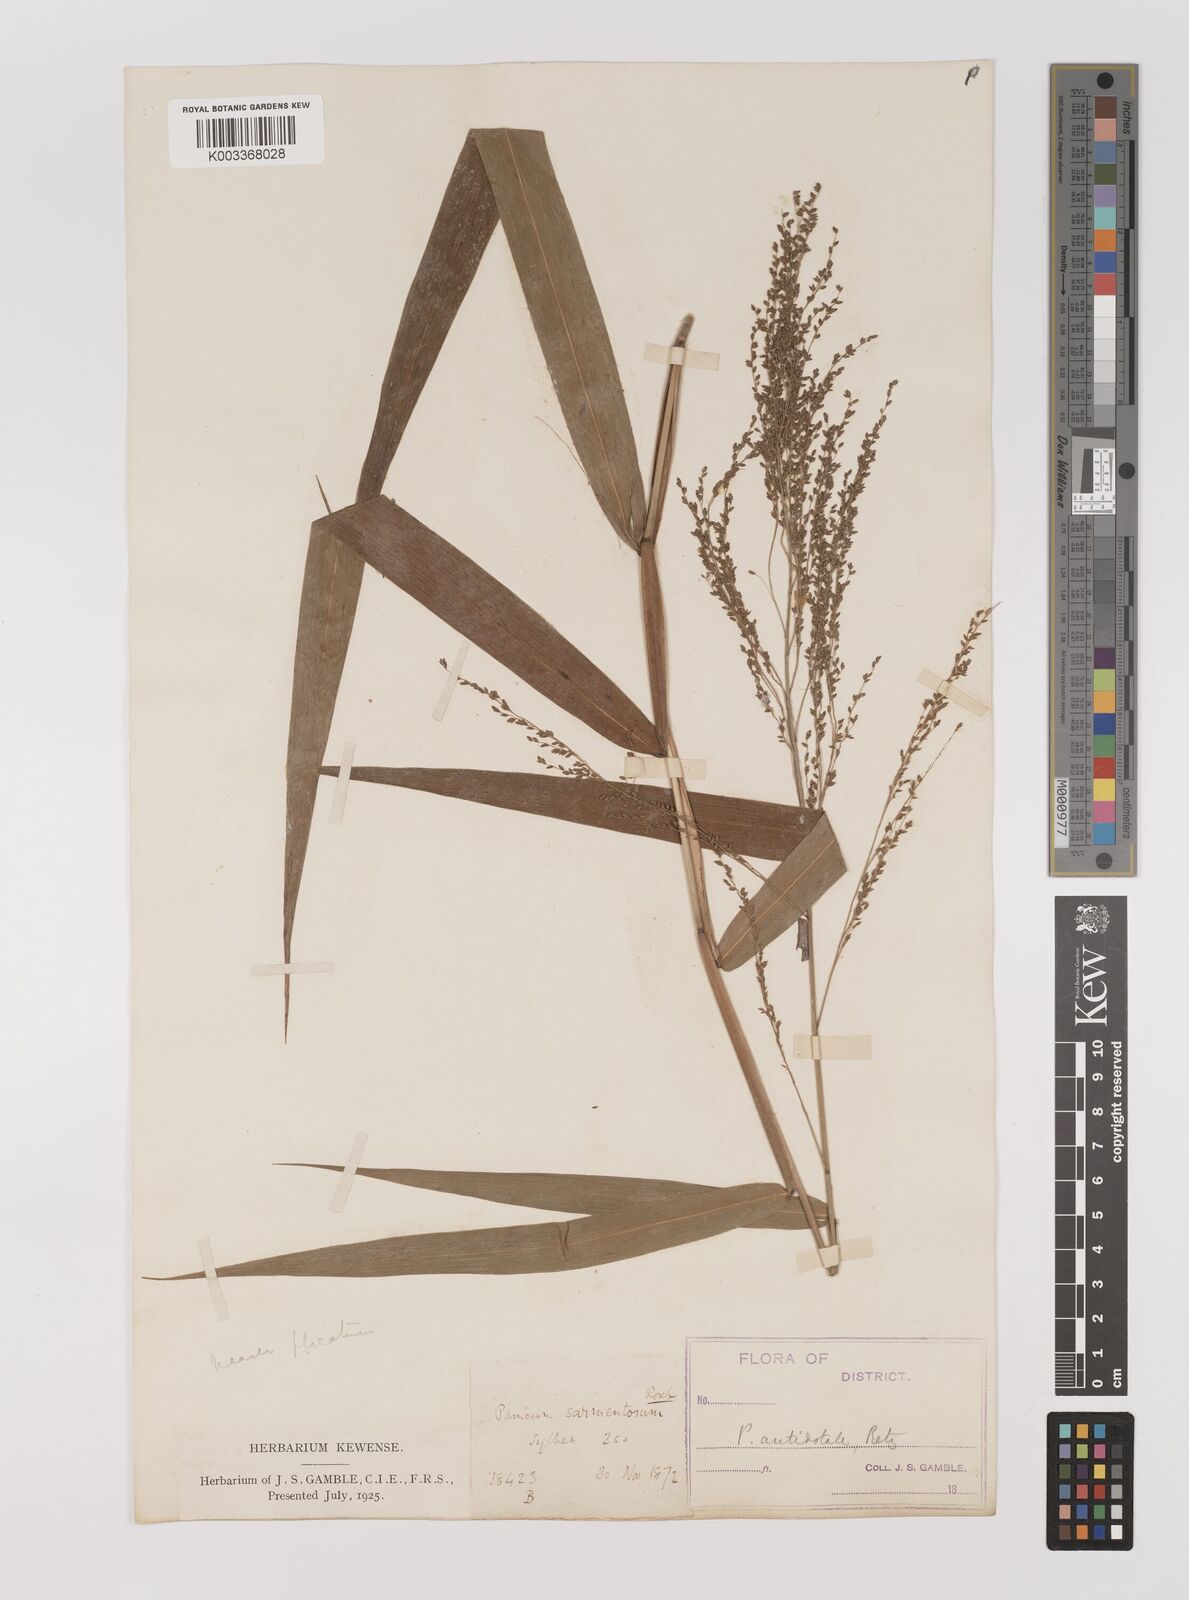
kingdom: Plantae
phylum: Tracheophyta
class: Liliopsida
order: Poales
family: Poaceae
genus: Panicum
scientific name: Panicum antidotale
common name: Blue panicum
